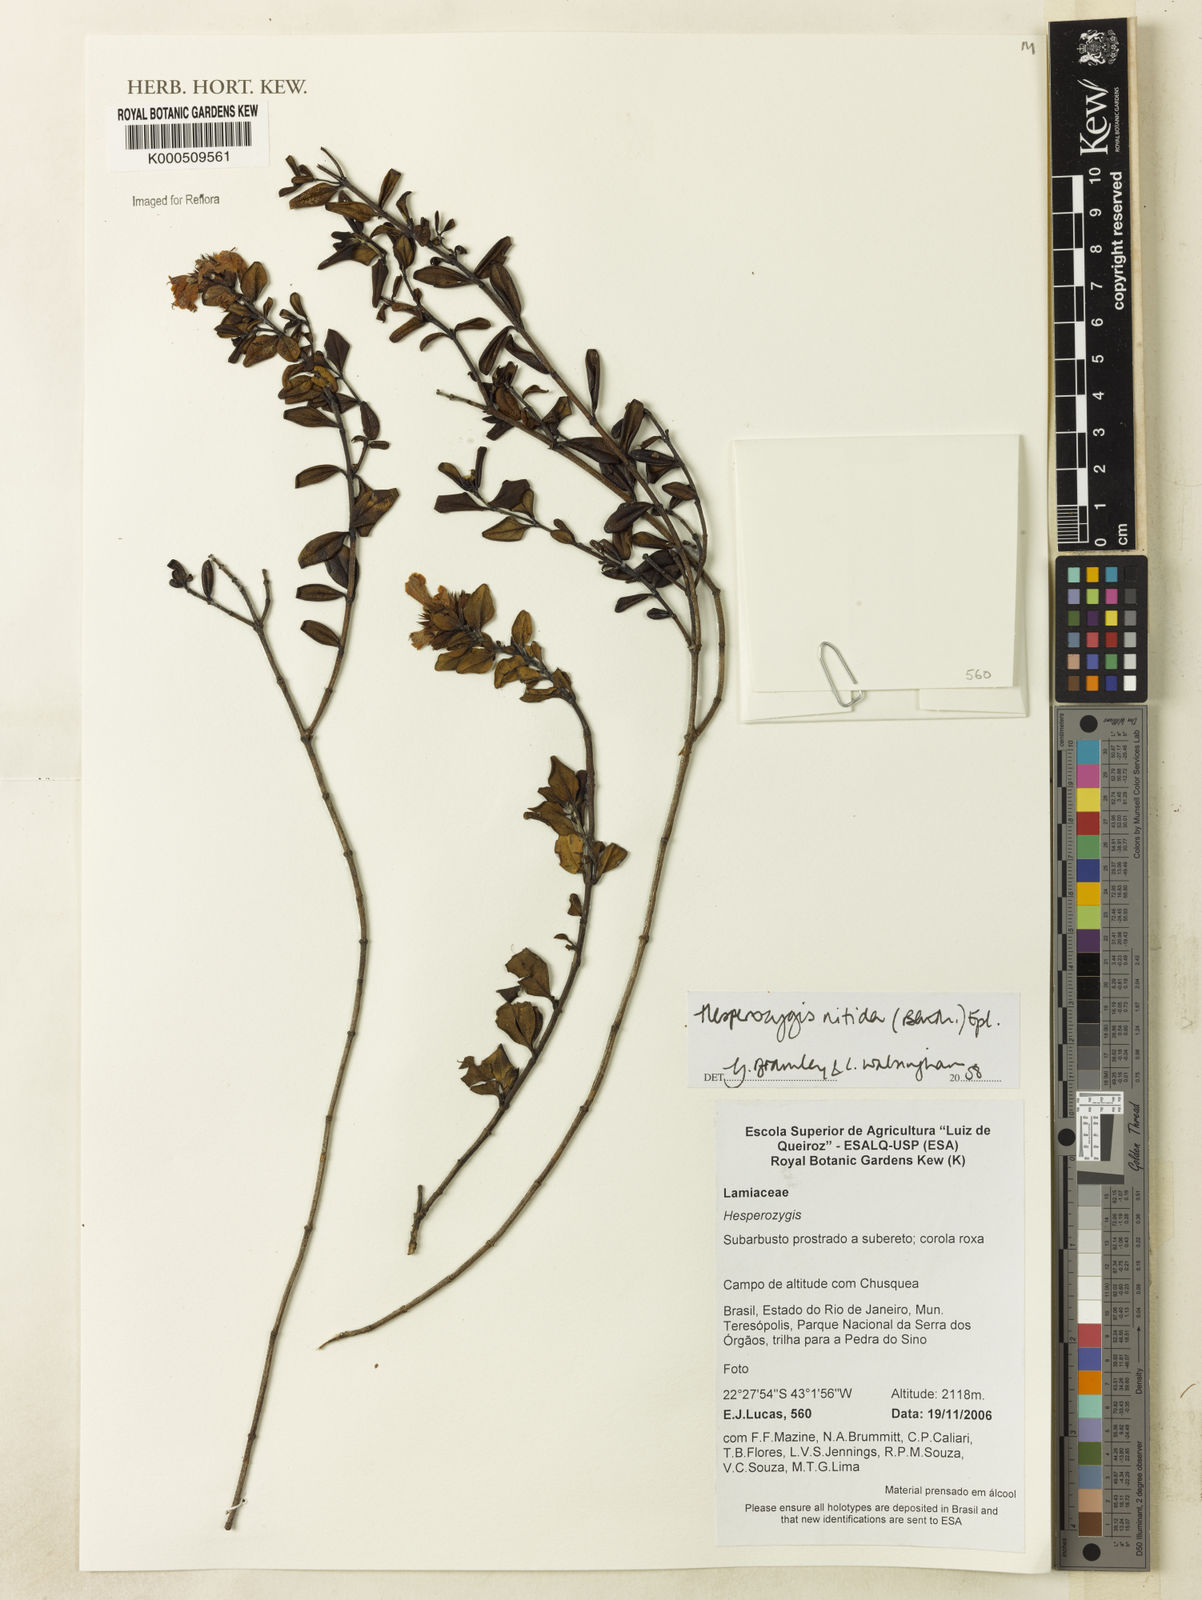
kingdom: Plantae
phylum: Tracheophyta
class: Magnoliopsida
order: Lamiales
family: Lamiaceae
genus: Hesperozygis
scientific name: Hesperozygis nitida
